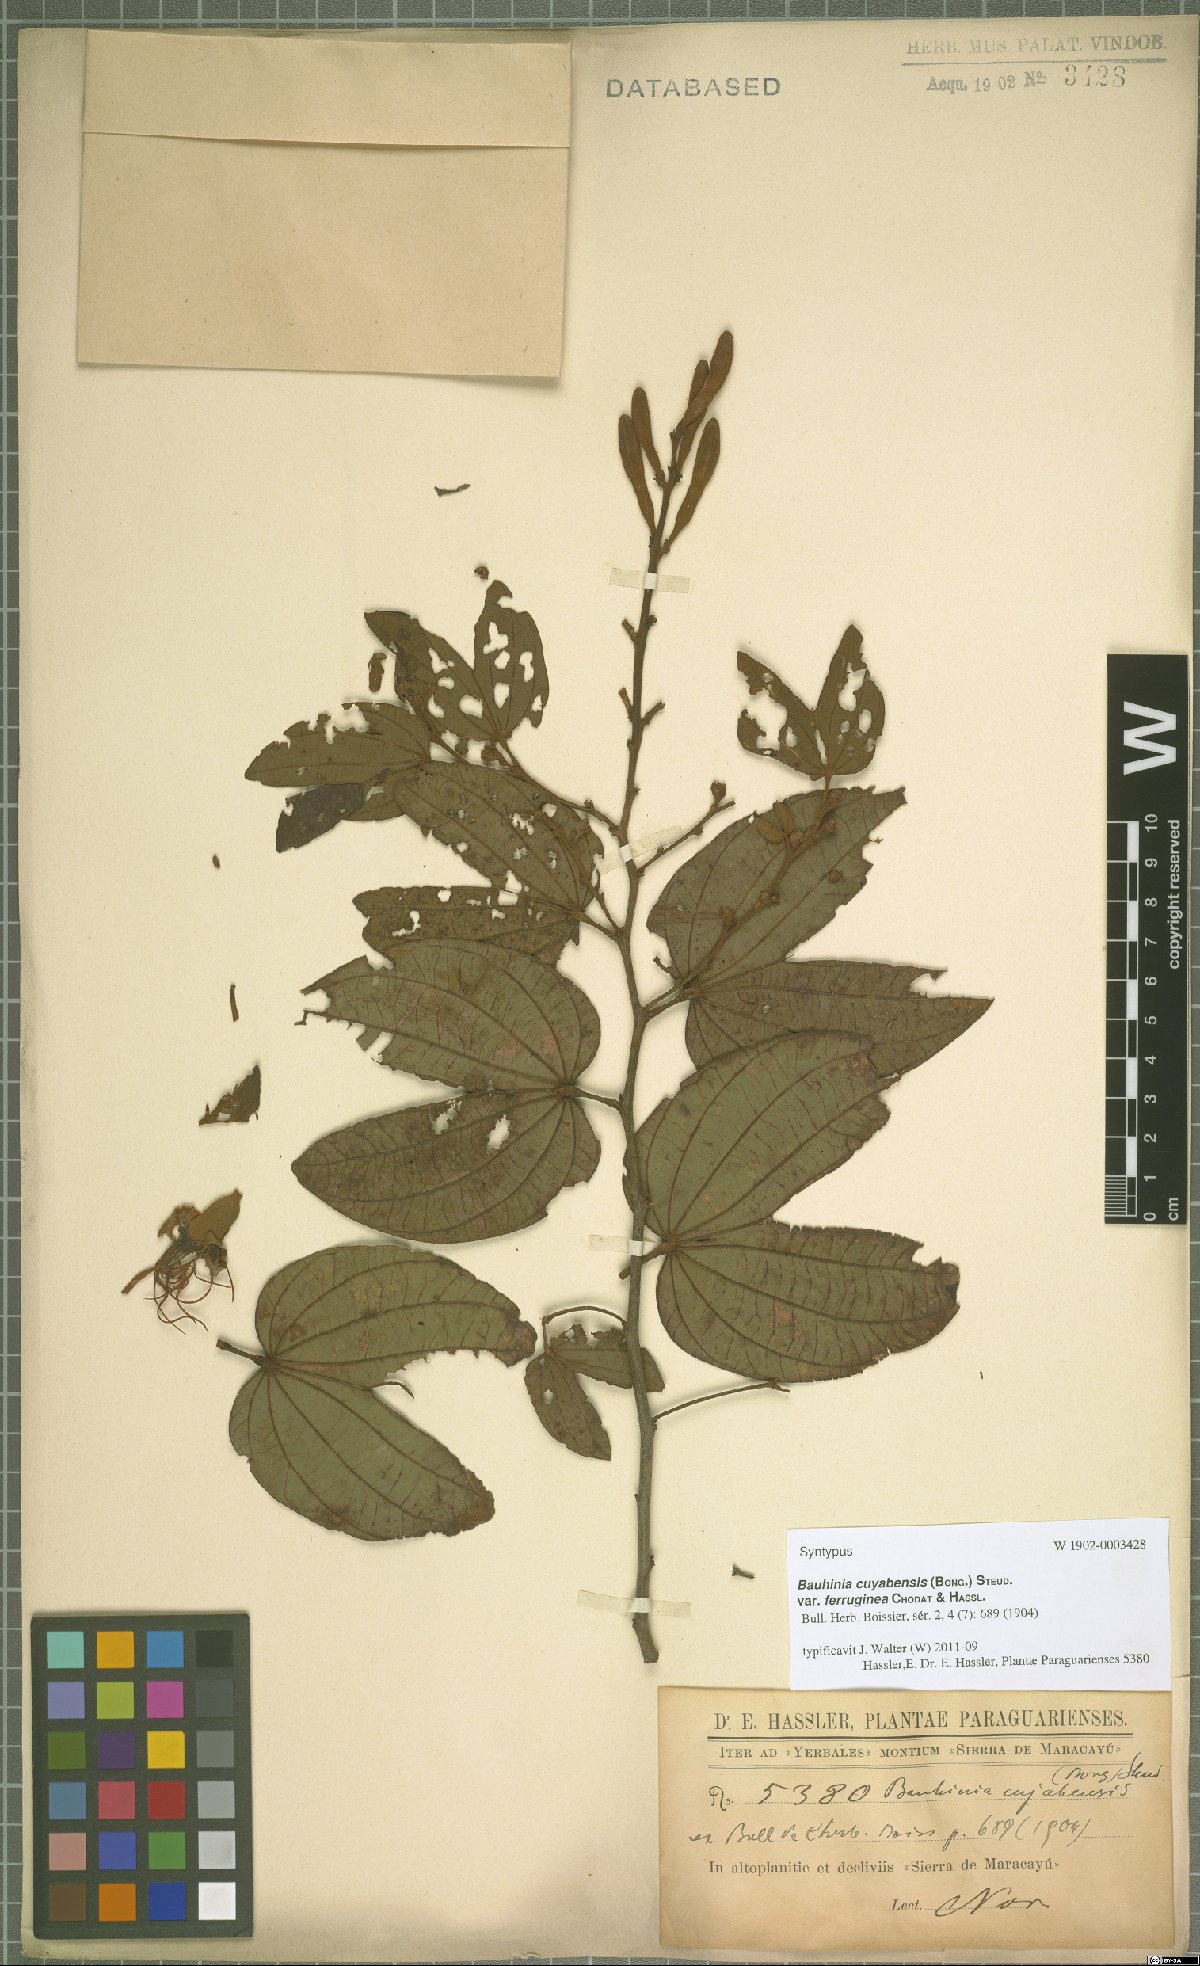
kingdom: Plantae
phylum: Tracheophyta
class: Magnoliopsida
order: Fabales
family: Fabaceae
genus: Bauhinia
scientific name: Bauhinia ungulata
